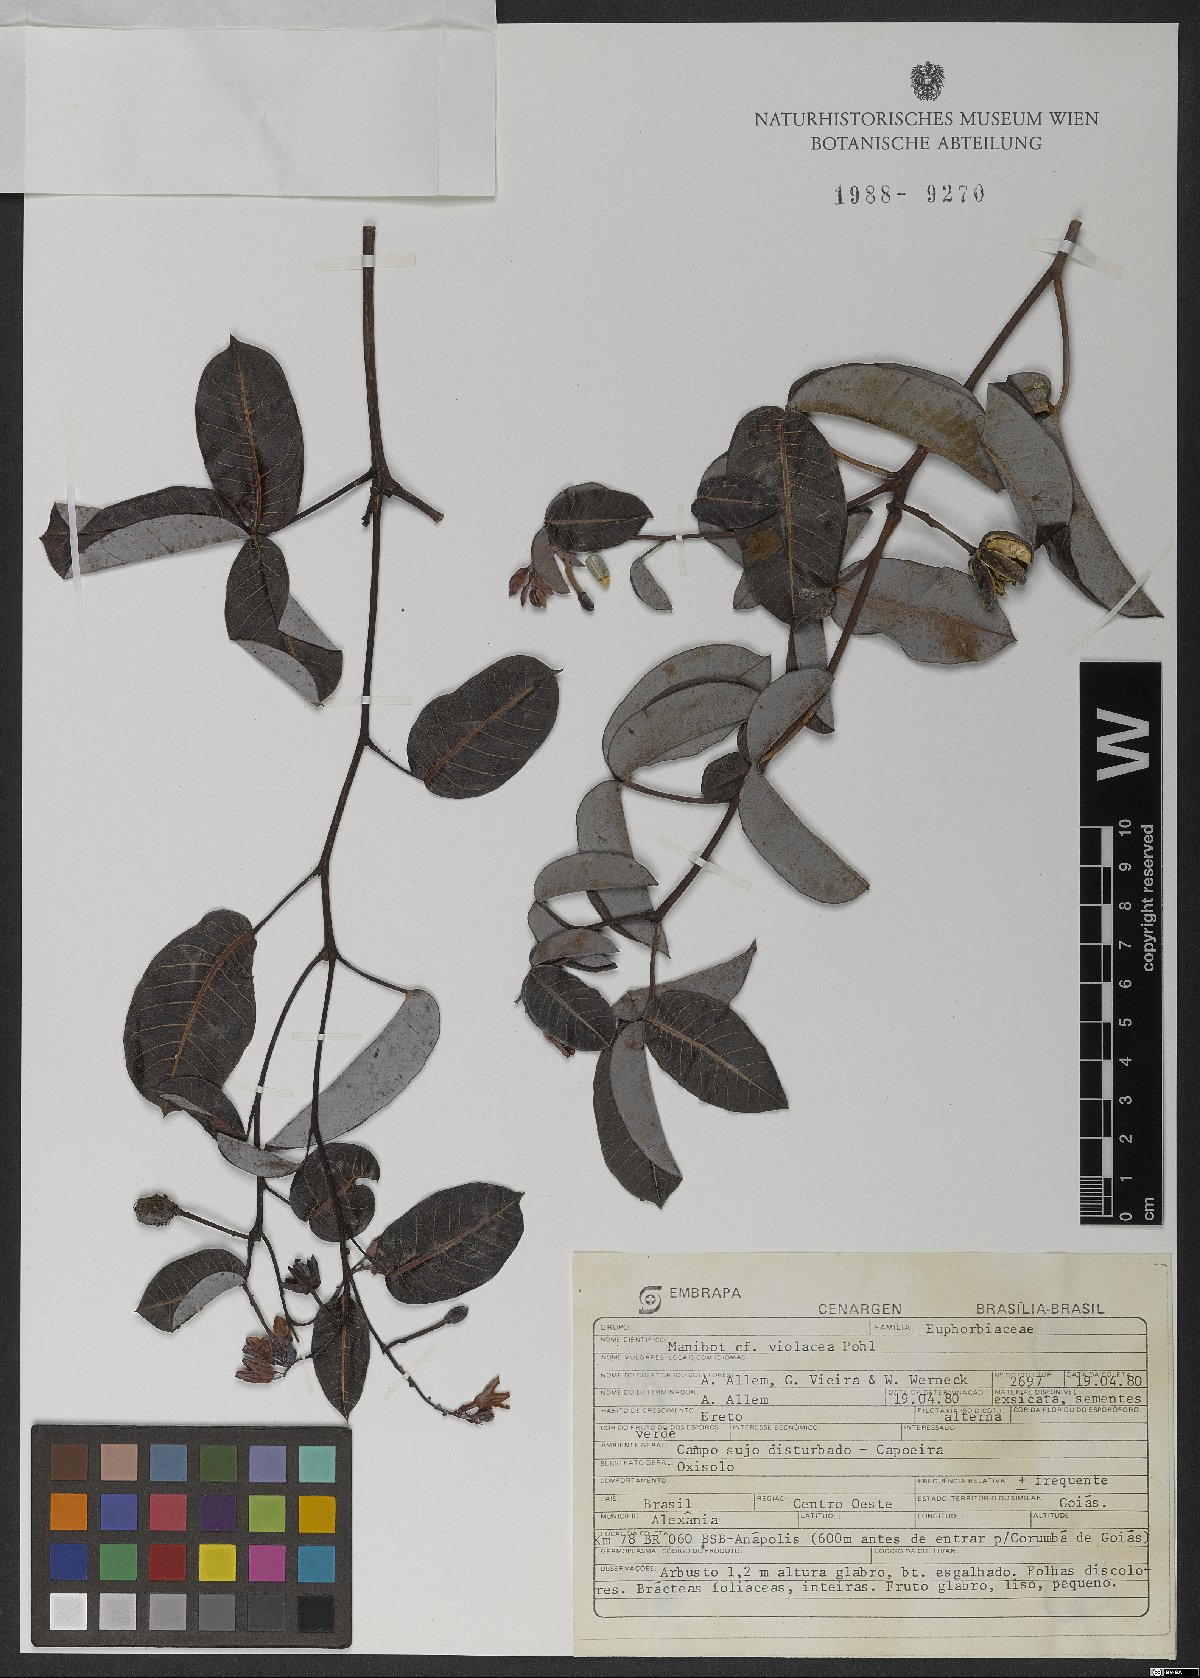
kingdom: Plantae
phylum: Tracheophyta
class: Magnoliopsida
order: Malpighiales
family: Euphorbiaceae
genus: Manihot
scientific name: Manihot violacea
